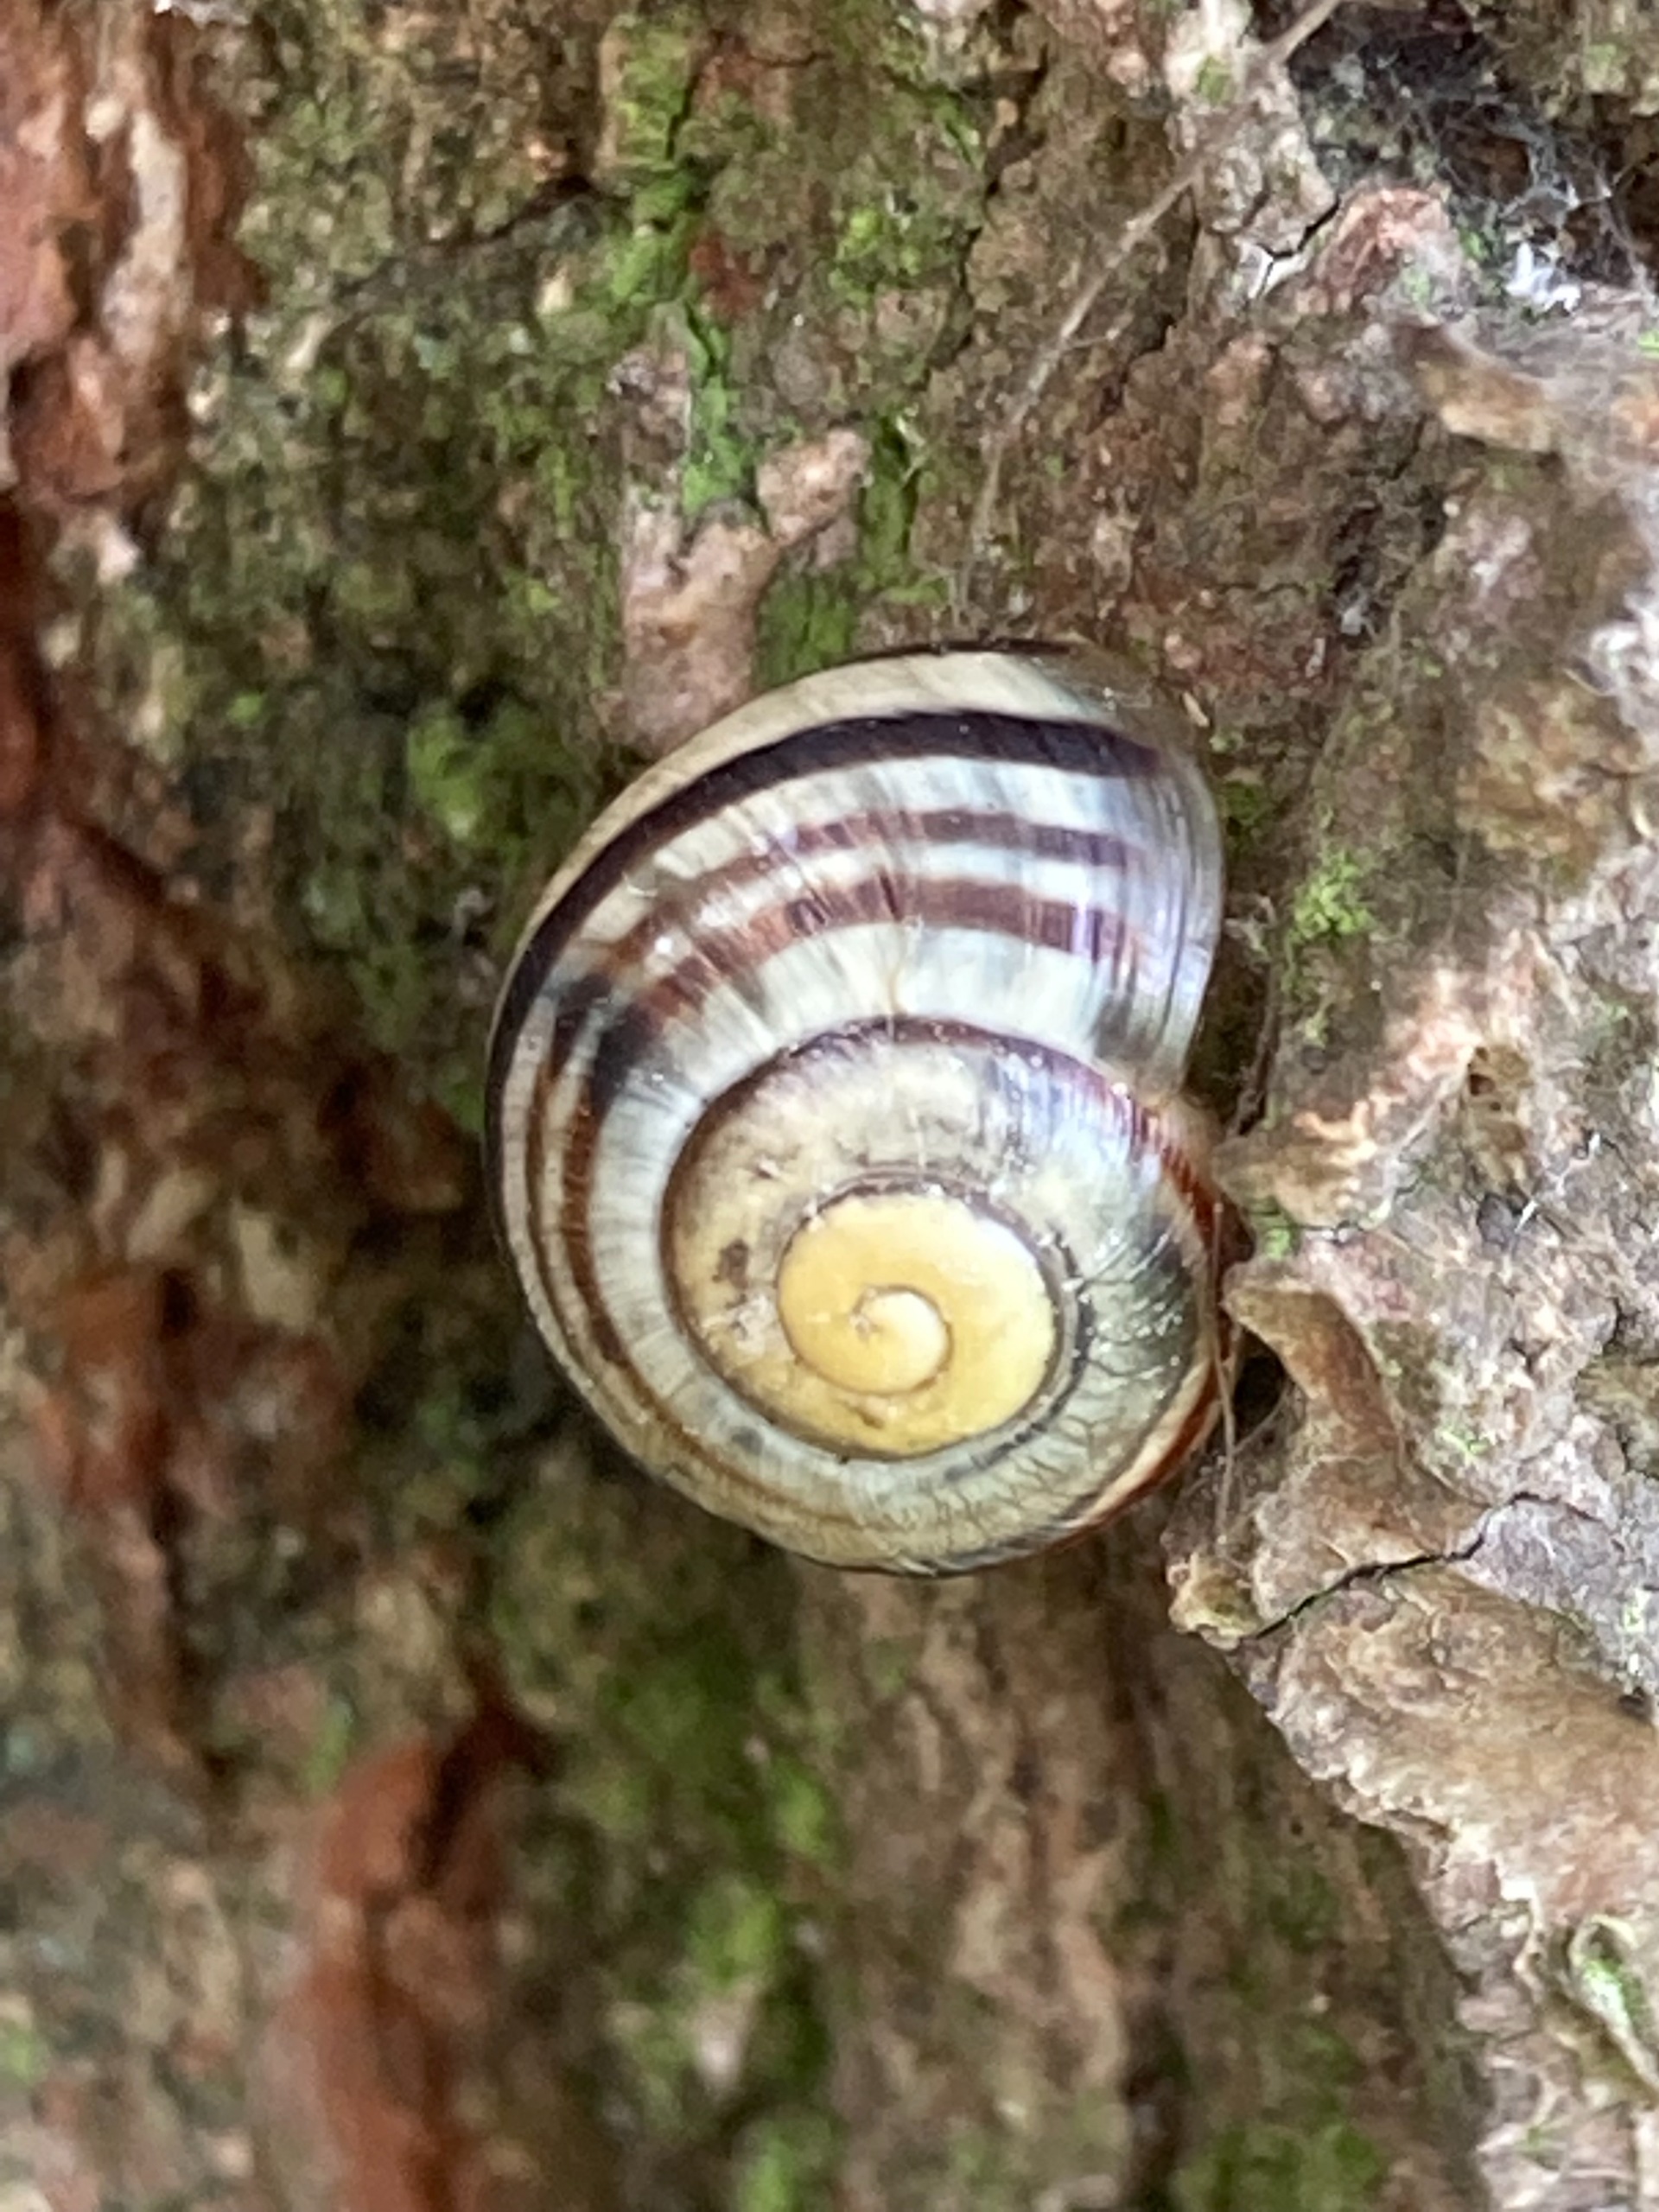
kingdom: Animalia
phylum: Mollusca
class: Gastropoda
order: Stylommatophora
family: Helicidae
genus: Cepaea
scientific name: Cepaea hortensis
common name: Havesnegl
